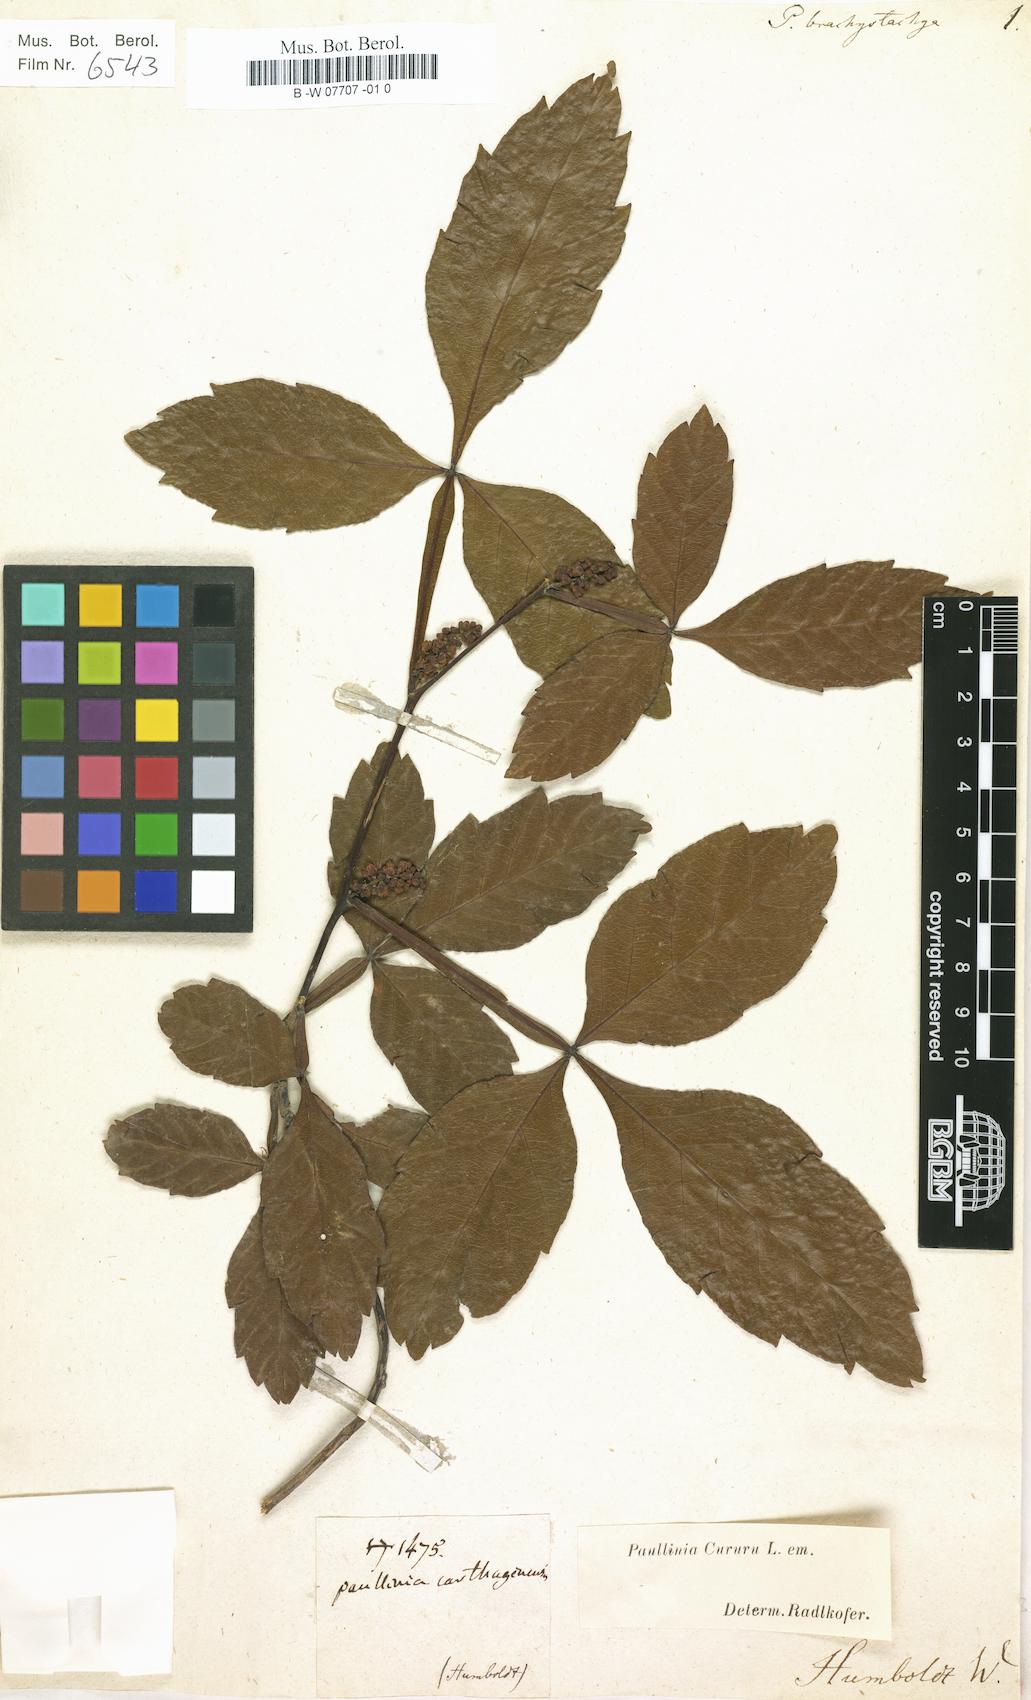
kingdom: Plantae
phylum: Tracheophyta
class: Magnoliopsida
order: Sapindales
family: Sapindaceae
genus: Serjania
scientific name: Serjania glabrata
